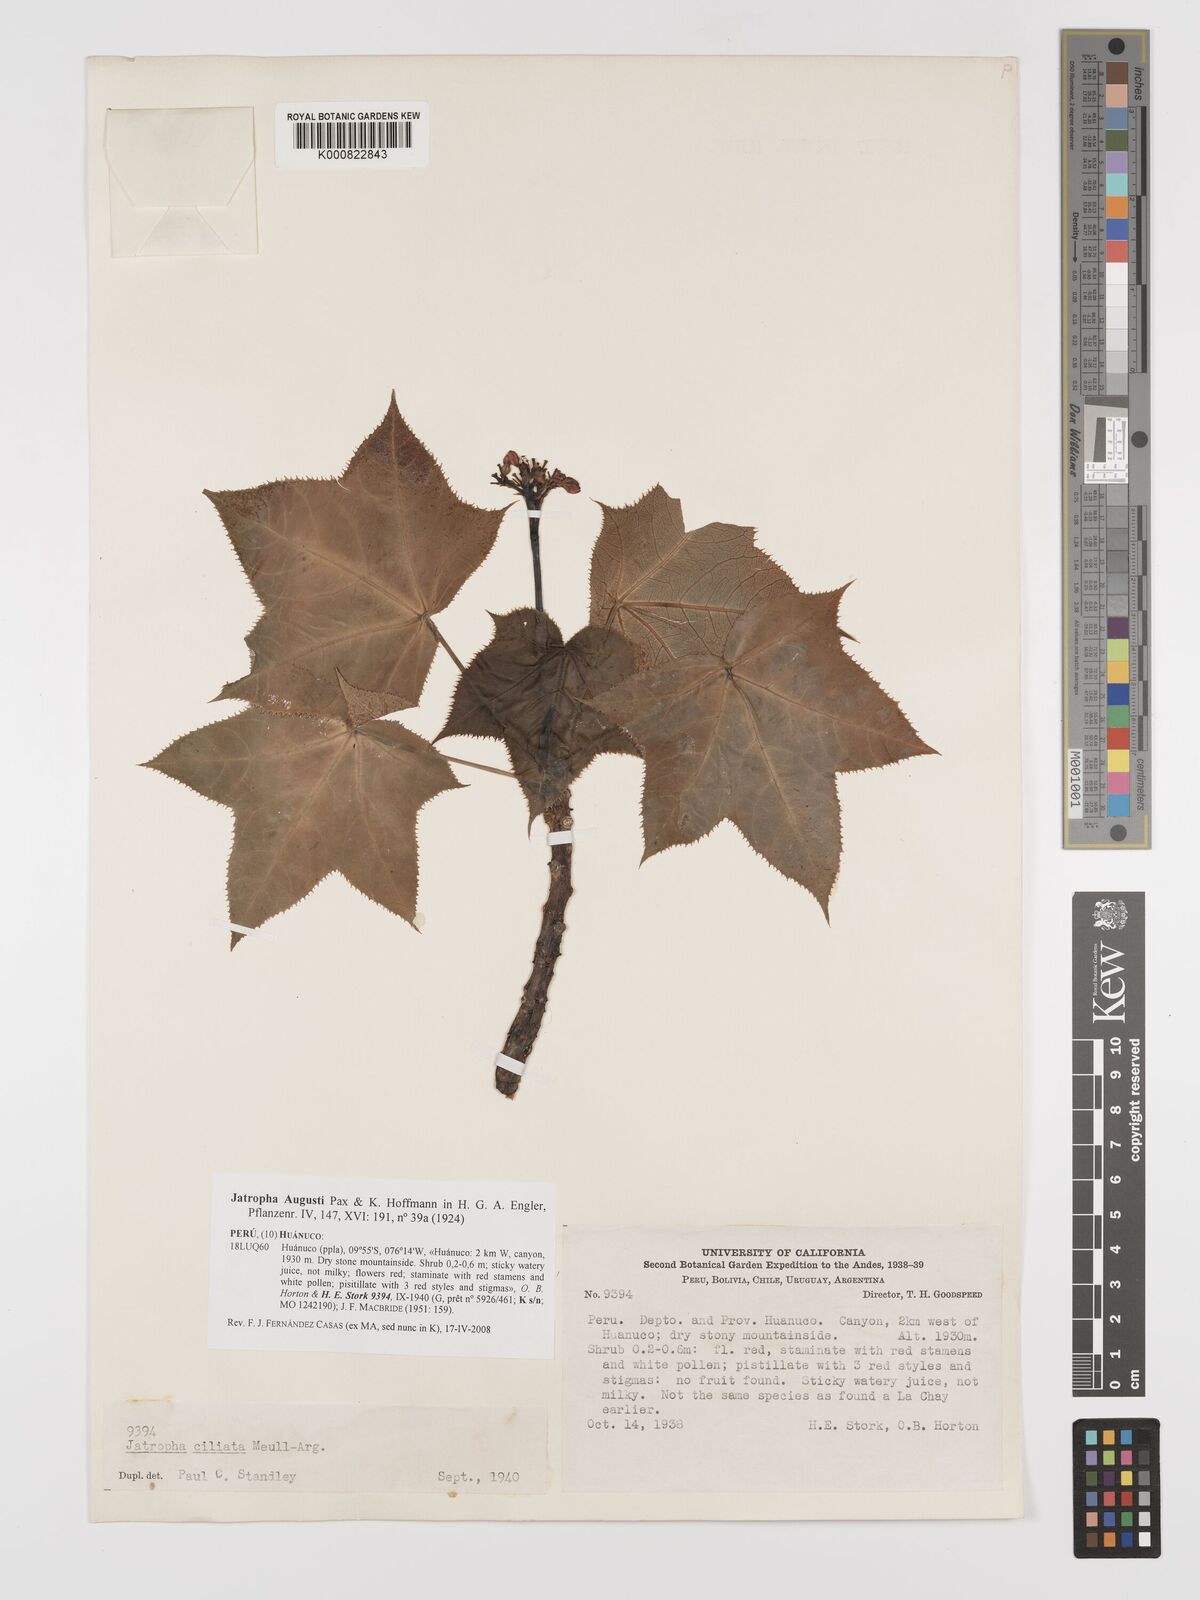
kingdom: Plantae
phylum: Tracheophyta
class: Magnoliopsida
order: Malpighiales
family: Euphorbiaceae
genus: Jatropha
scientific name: Jatropha augusti
